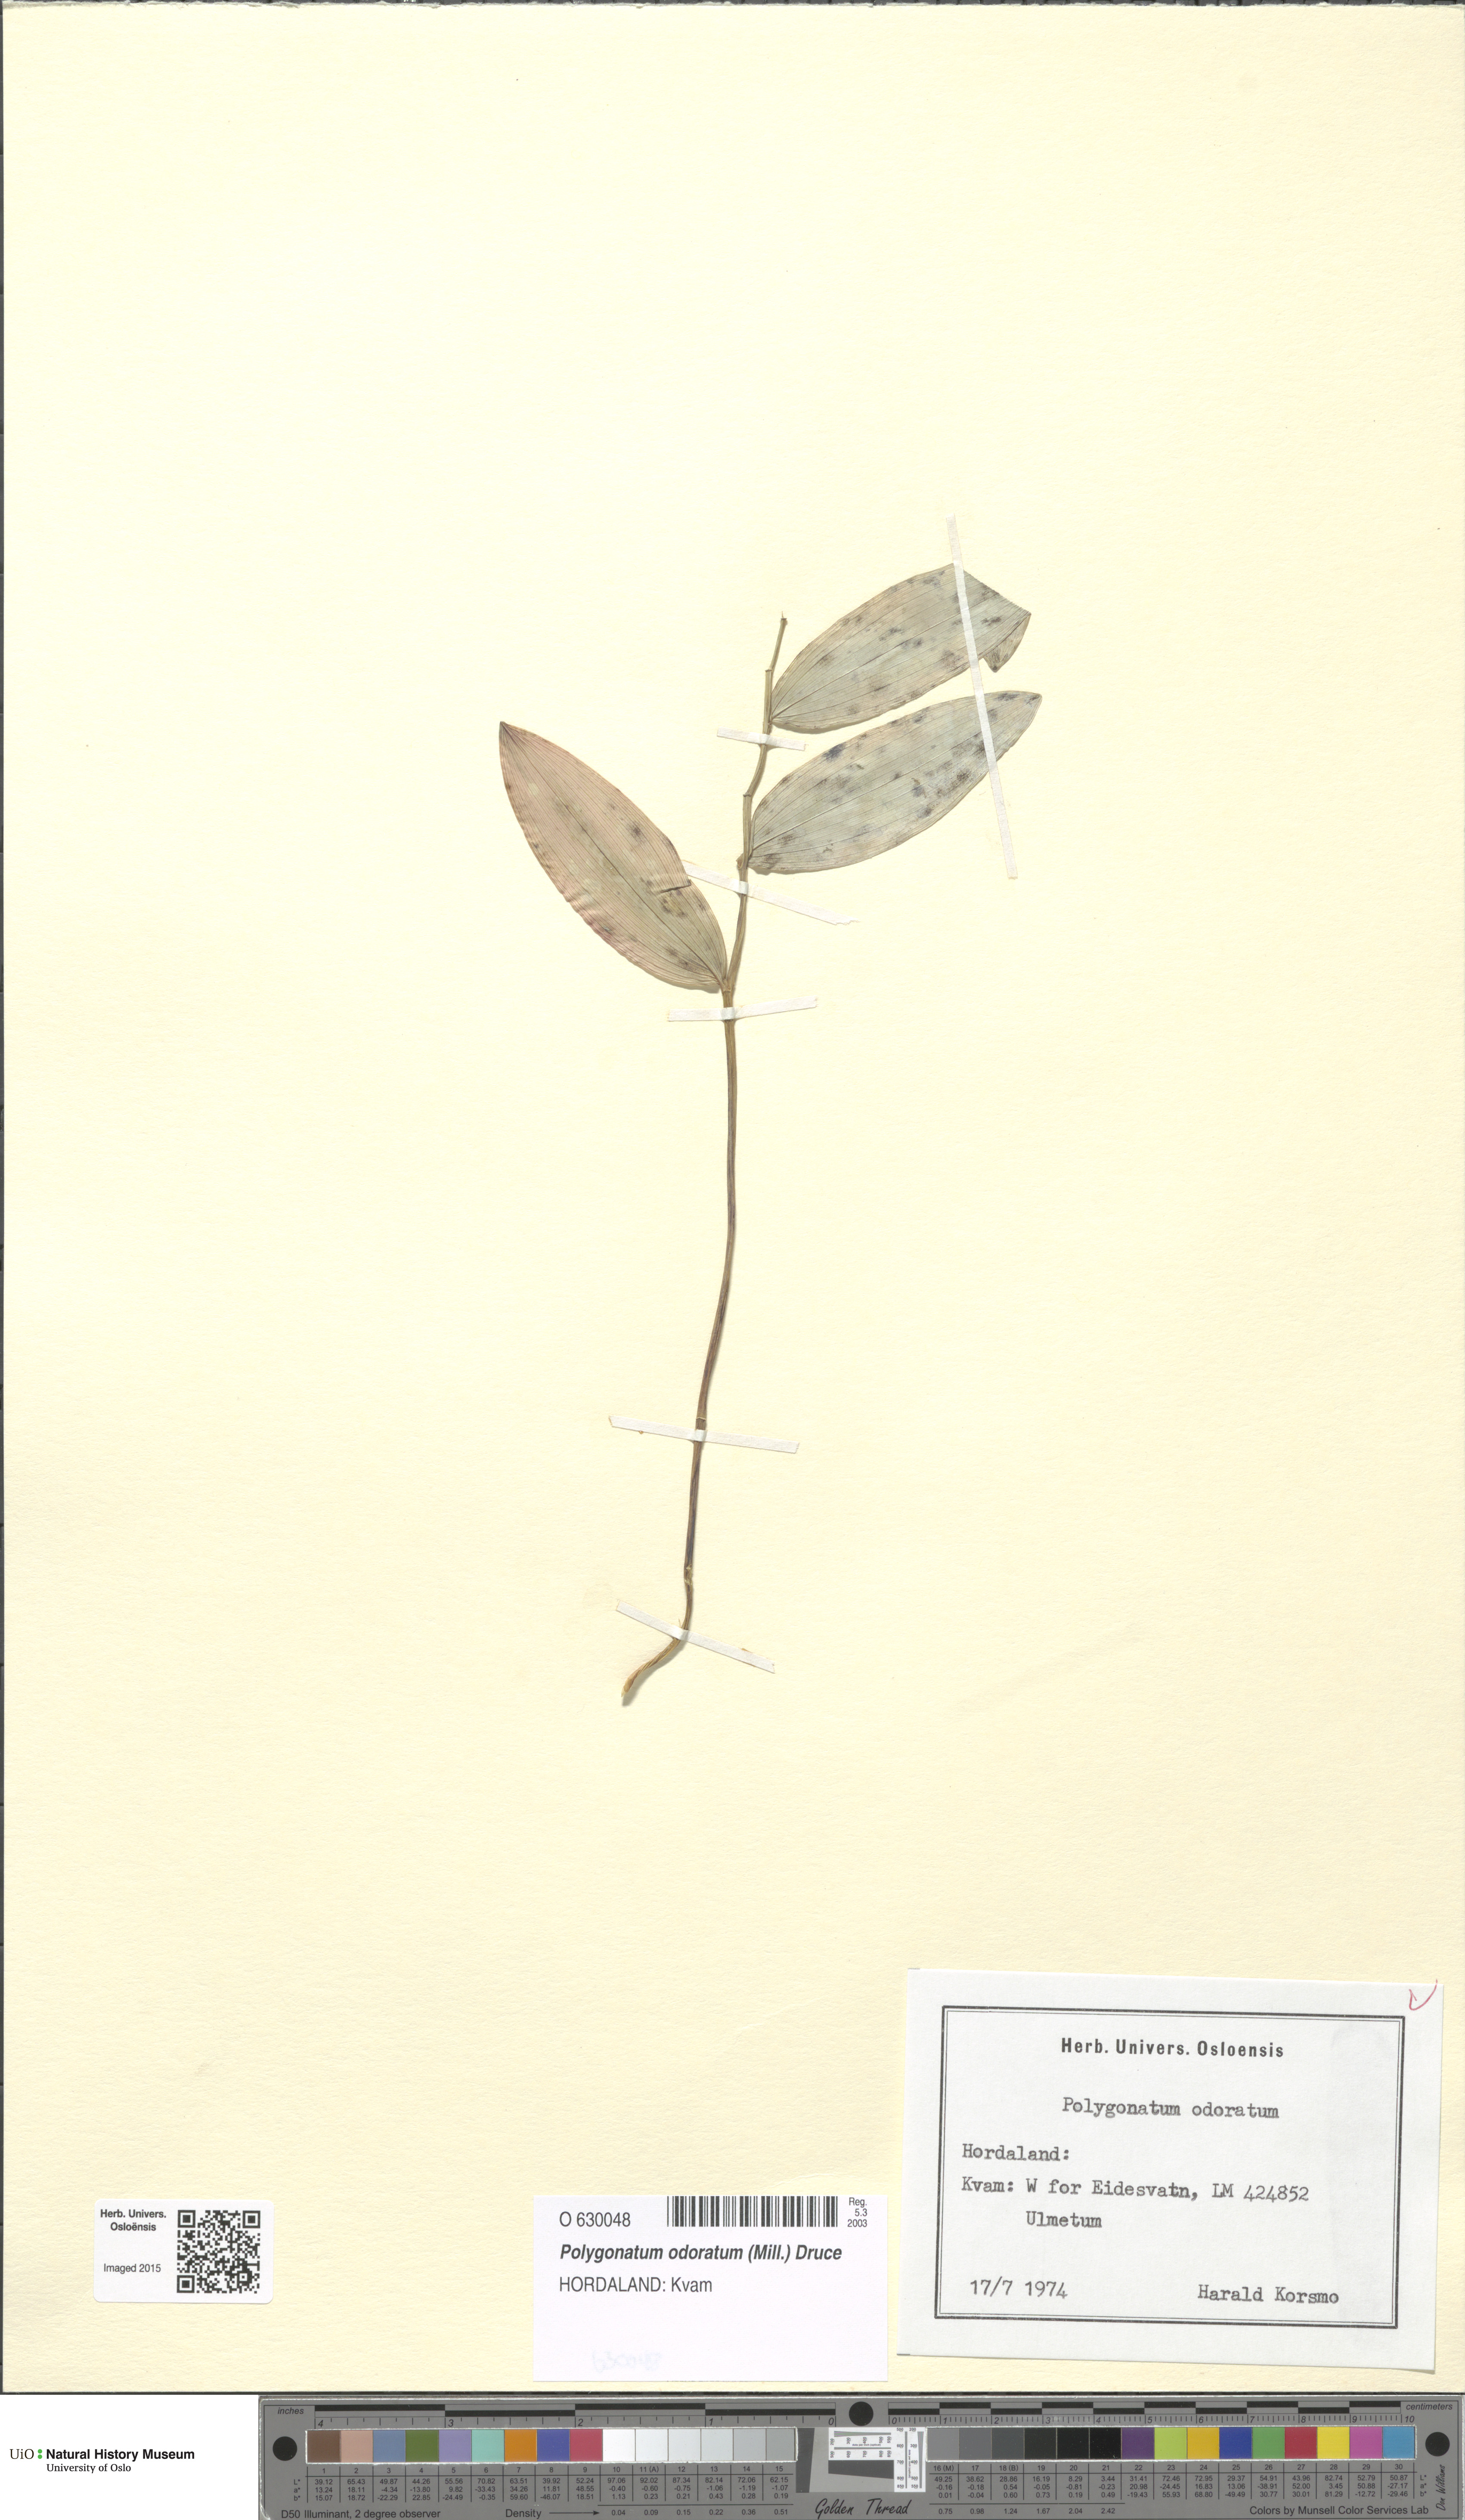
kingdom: Plantae
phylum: Tracheophyta
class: Liliopsida
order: Asparagales
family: Asparagaceae
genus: Polygonatum
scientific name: Polygonatum odoratum
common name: Angular solomon's-seal
